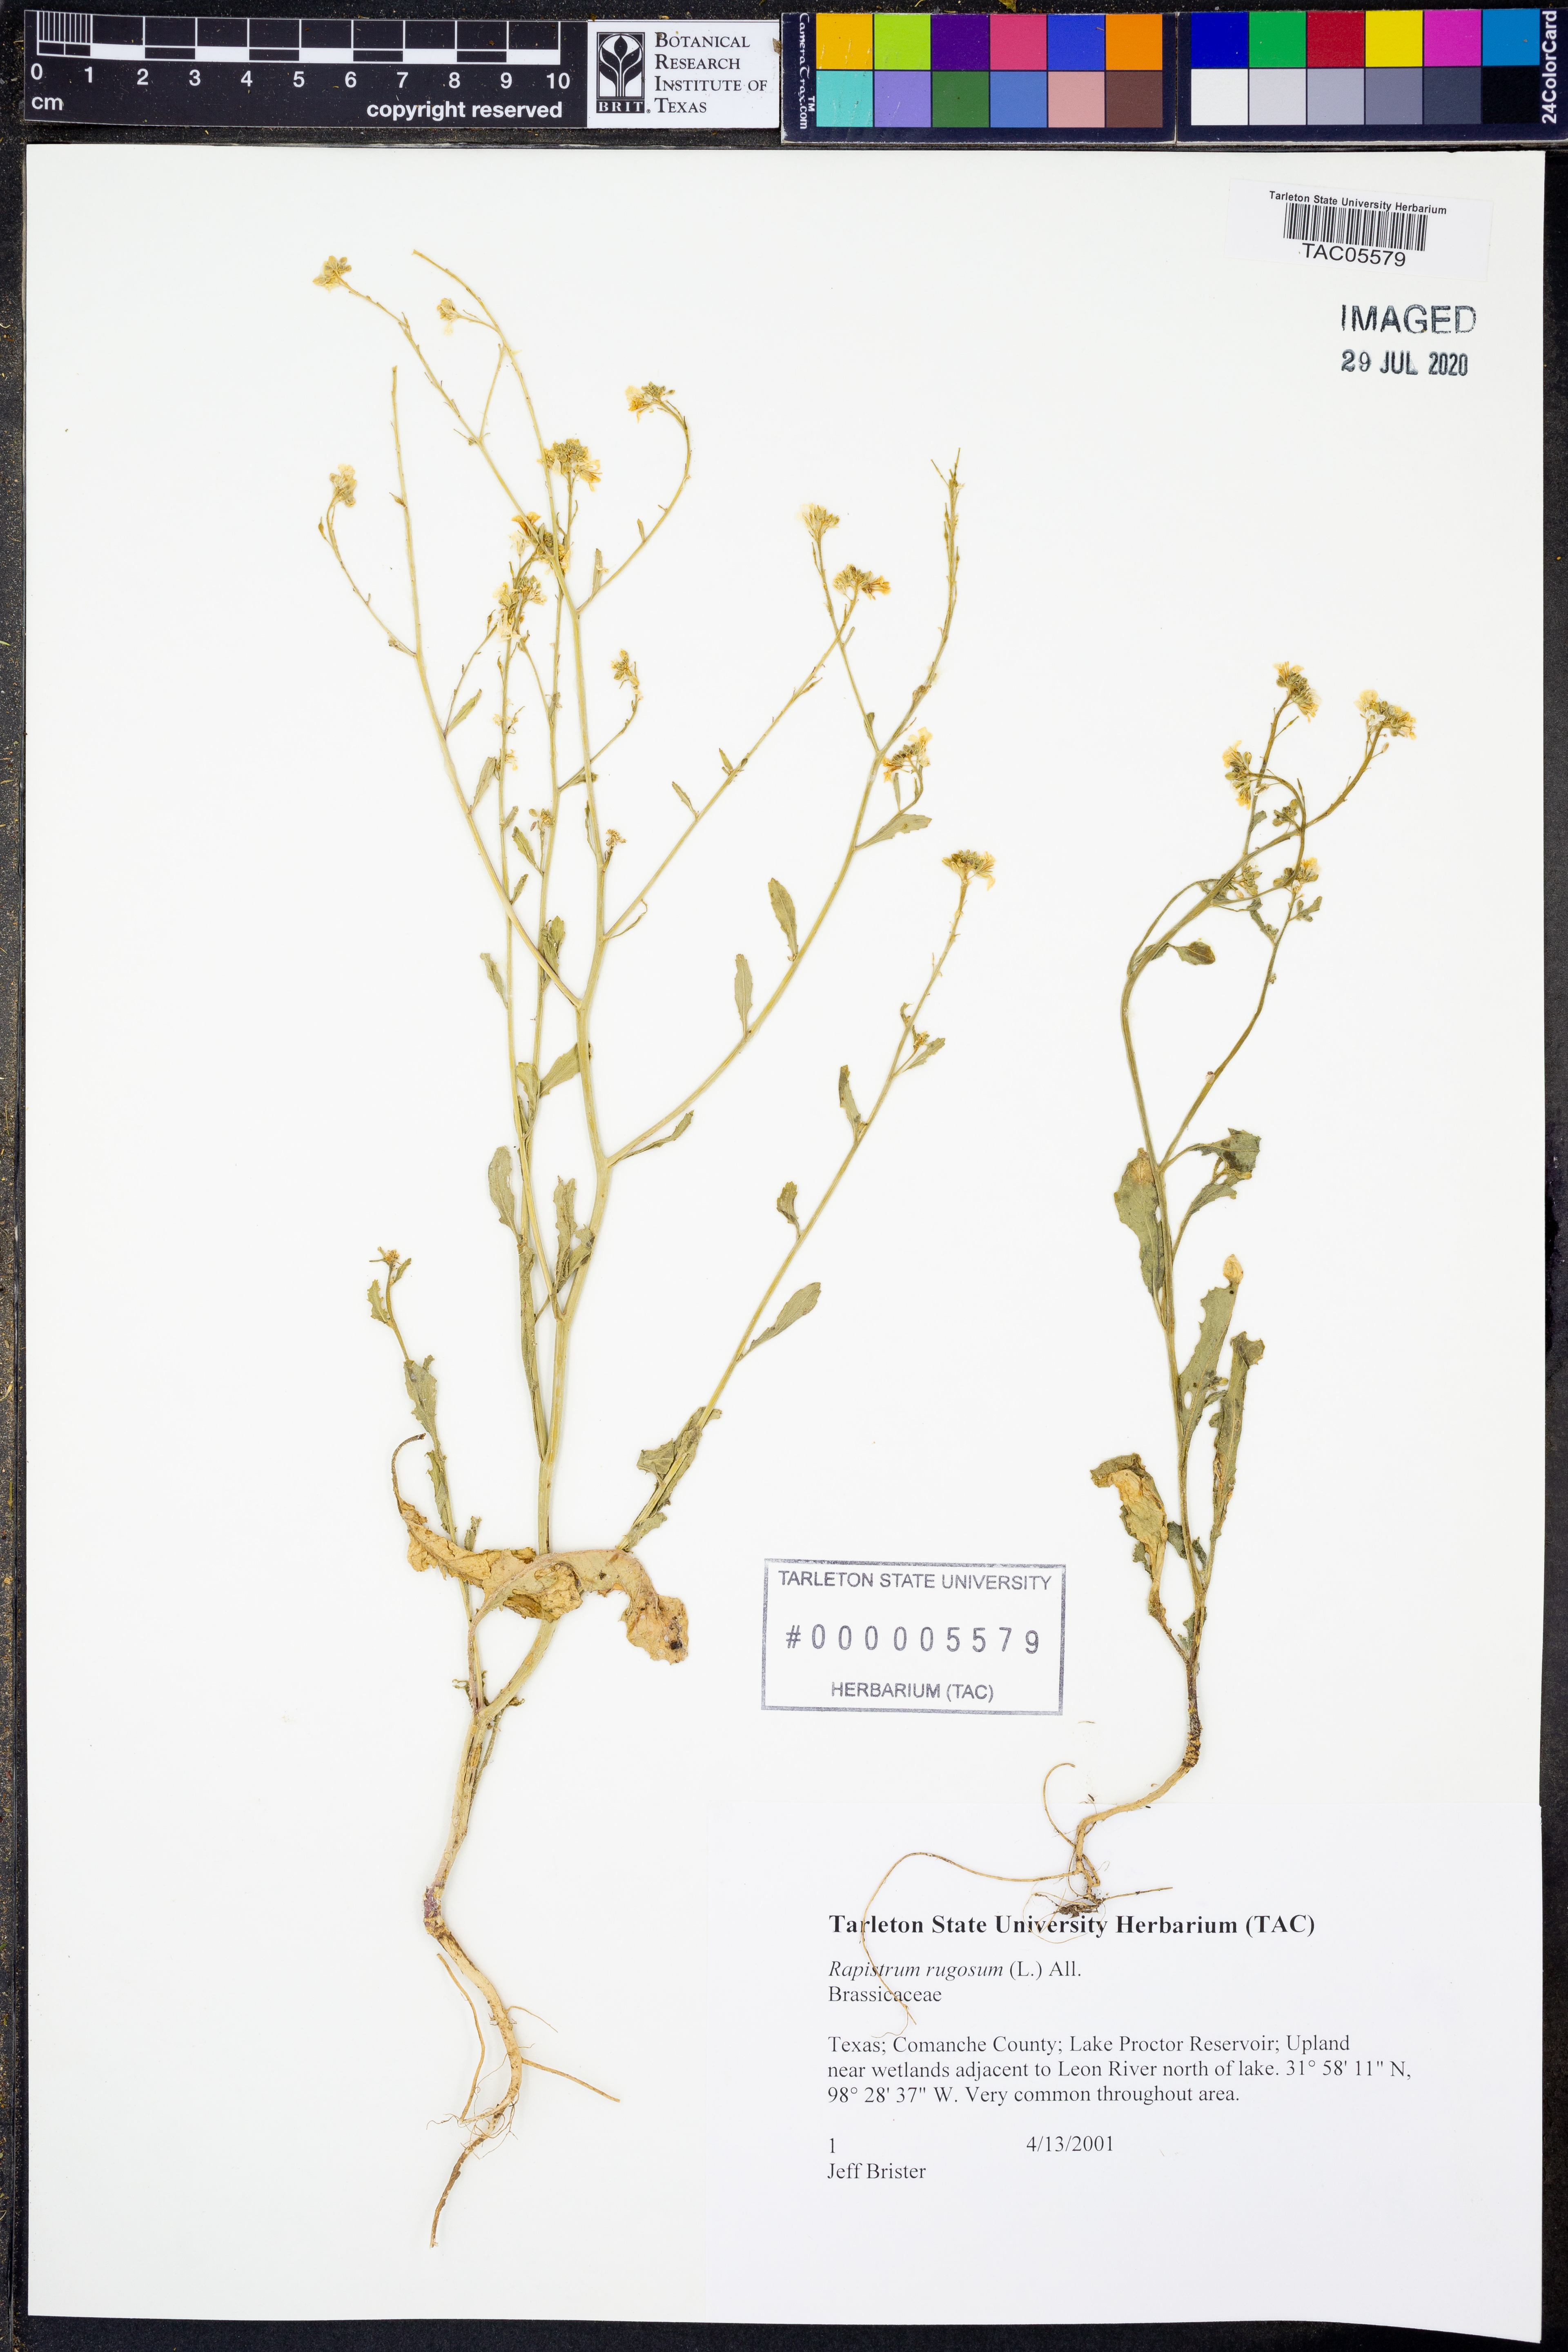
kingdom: Plantae
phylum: Tracheophyta
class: Magnoliopsida
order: Brassicales
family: Brassicaceae
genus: Rapistrum
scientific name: Rapistrum rugosum
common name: Annual bastardcabbage
